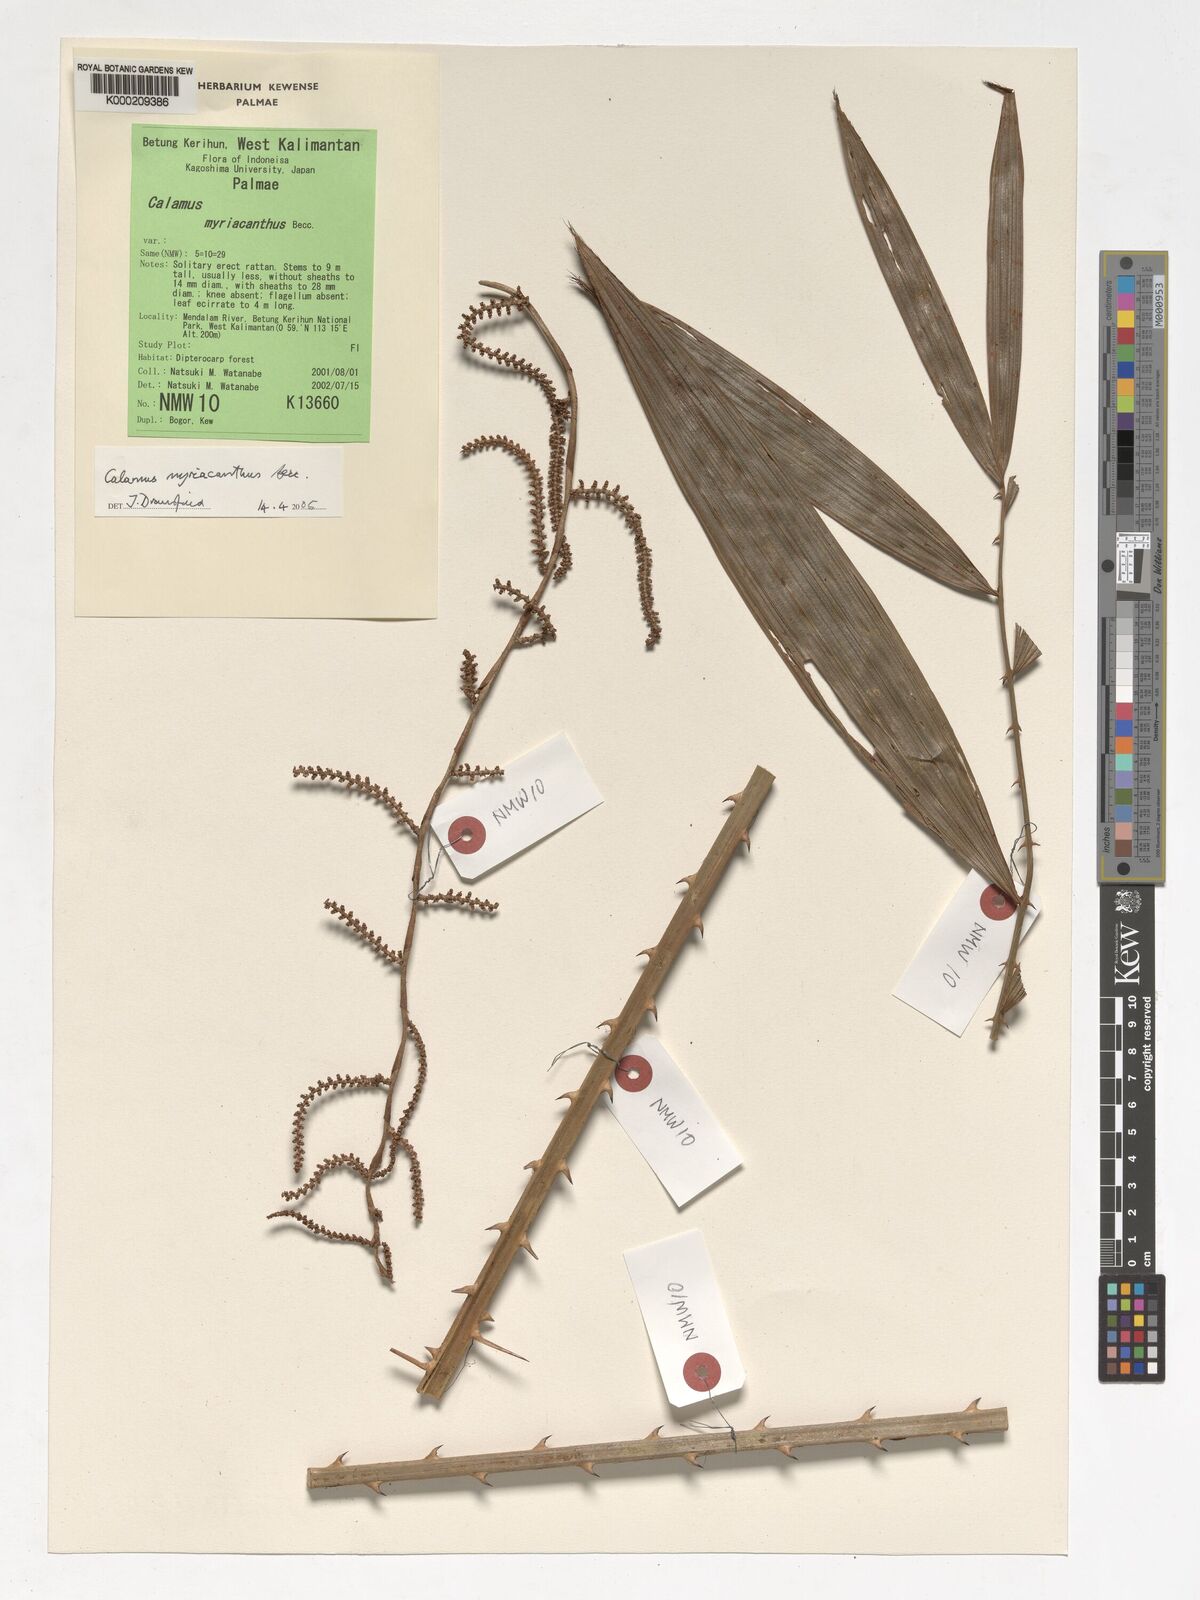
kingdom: Plantae
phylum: Tracheophyta
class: Liliopsida
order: Arecales
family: Arecaceae
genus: Calamus
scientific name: Calamus myriacanthus
